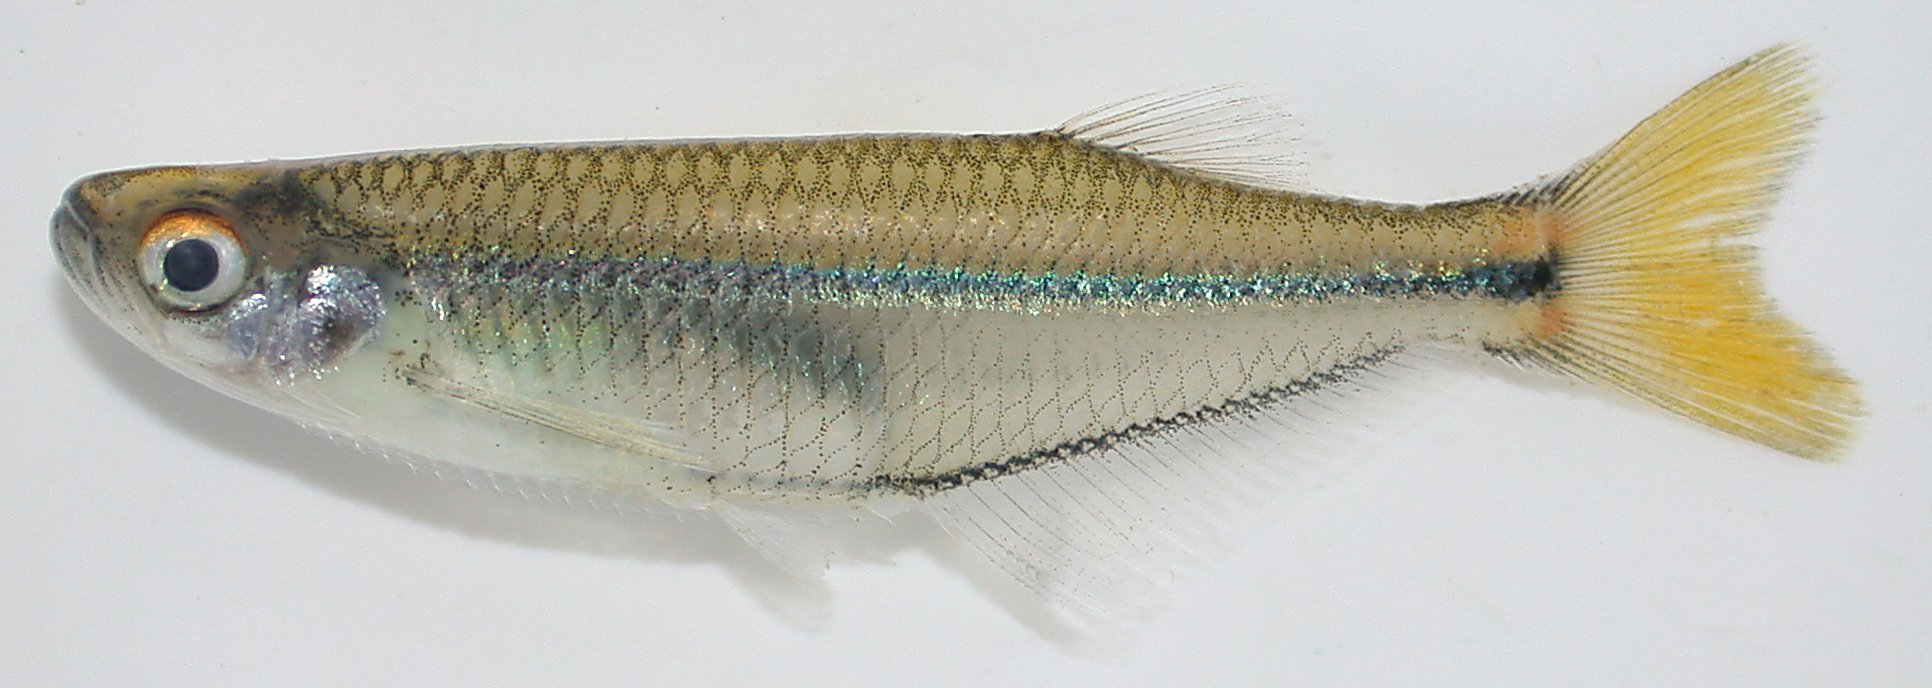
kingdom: Animalia
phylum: Chordata
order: Clupeiformes
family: Denticipitidae
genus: Denticeps
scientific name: Denticeps clupeoides
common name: Denticle herring
